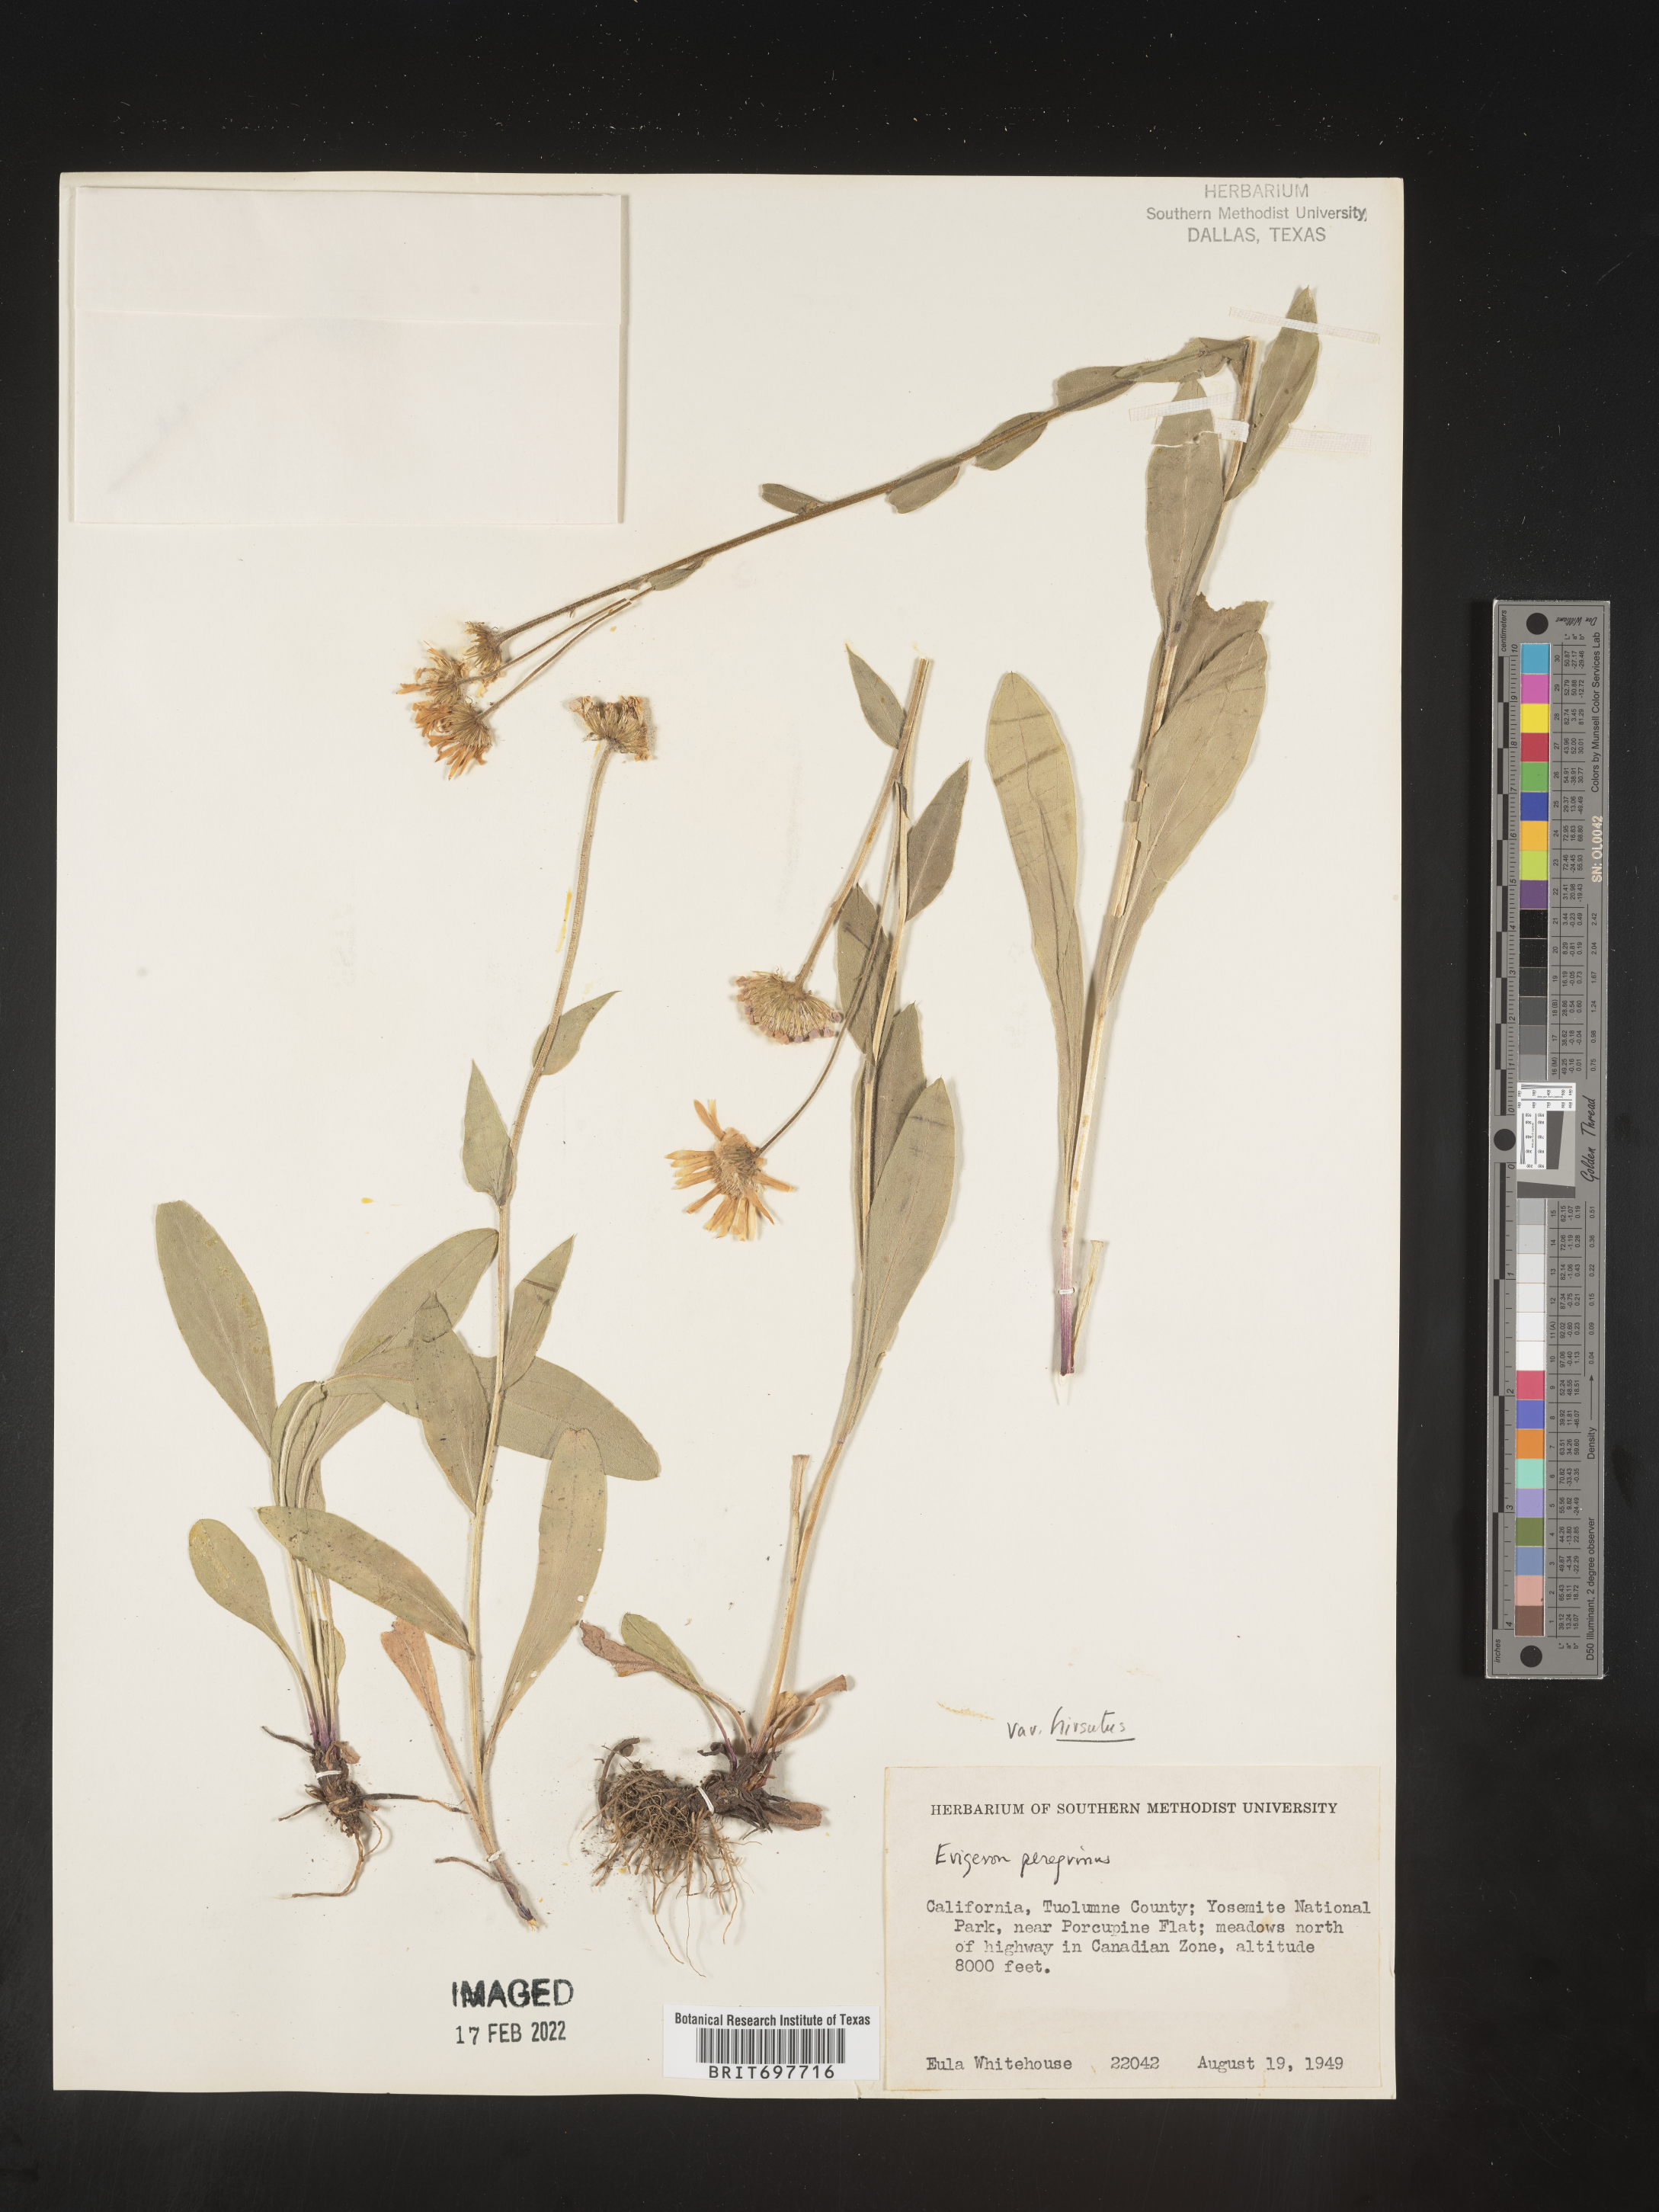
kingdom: Plantae
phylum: Tracheophyta
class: Magnoliopsida
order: Asterales
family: Asteraceae
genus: Erigeron
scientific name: Erigeron glacialis
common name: Subalpine fleabane
